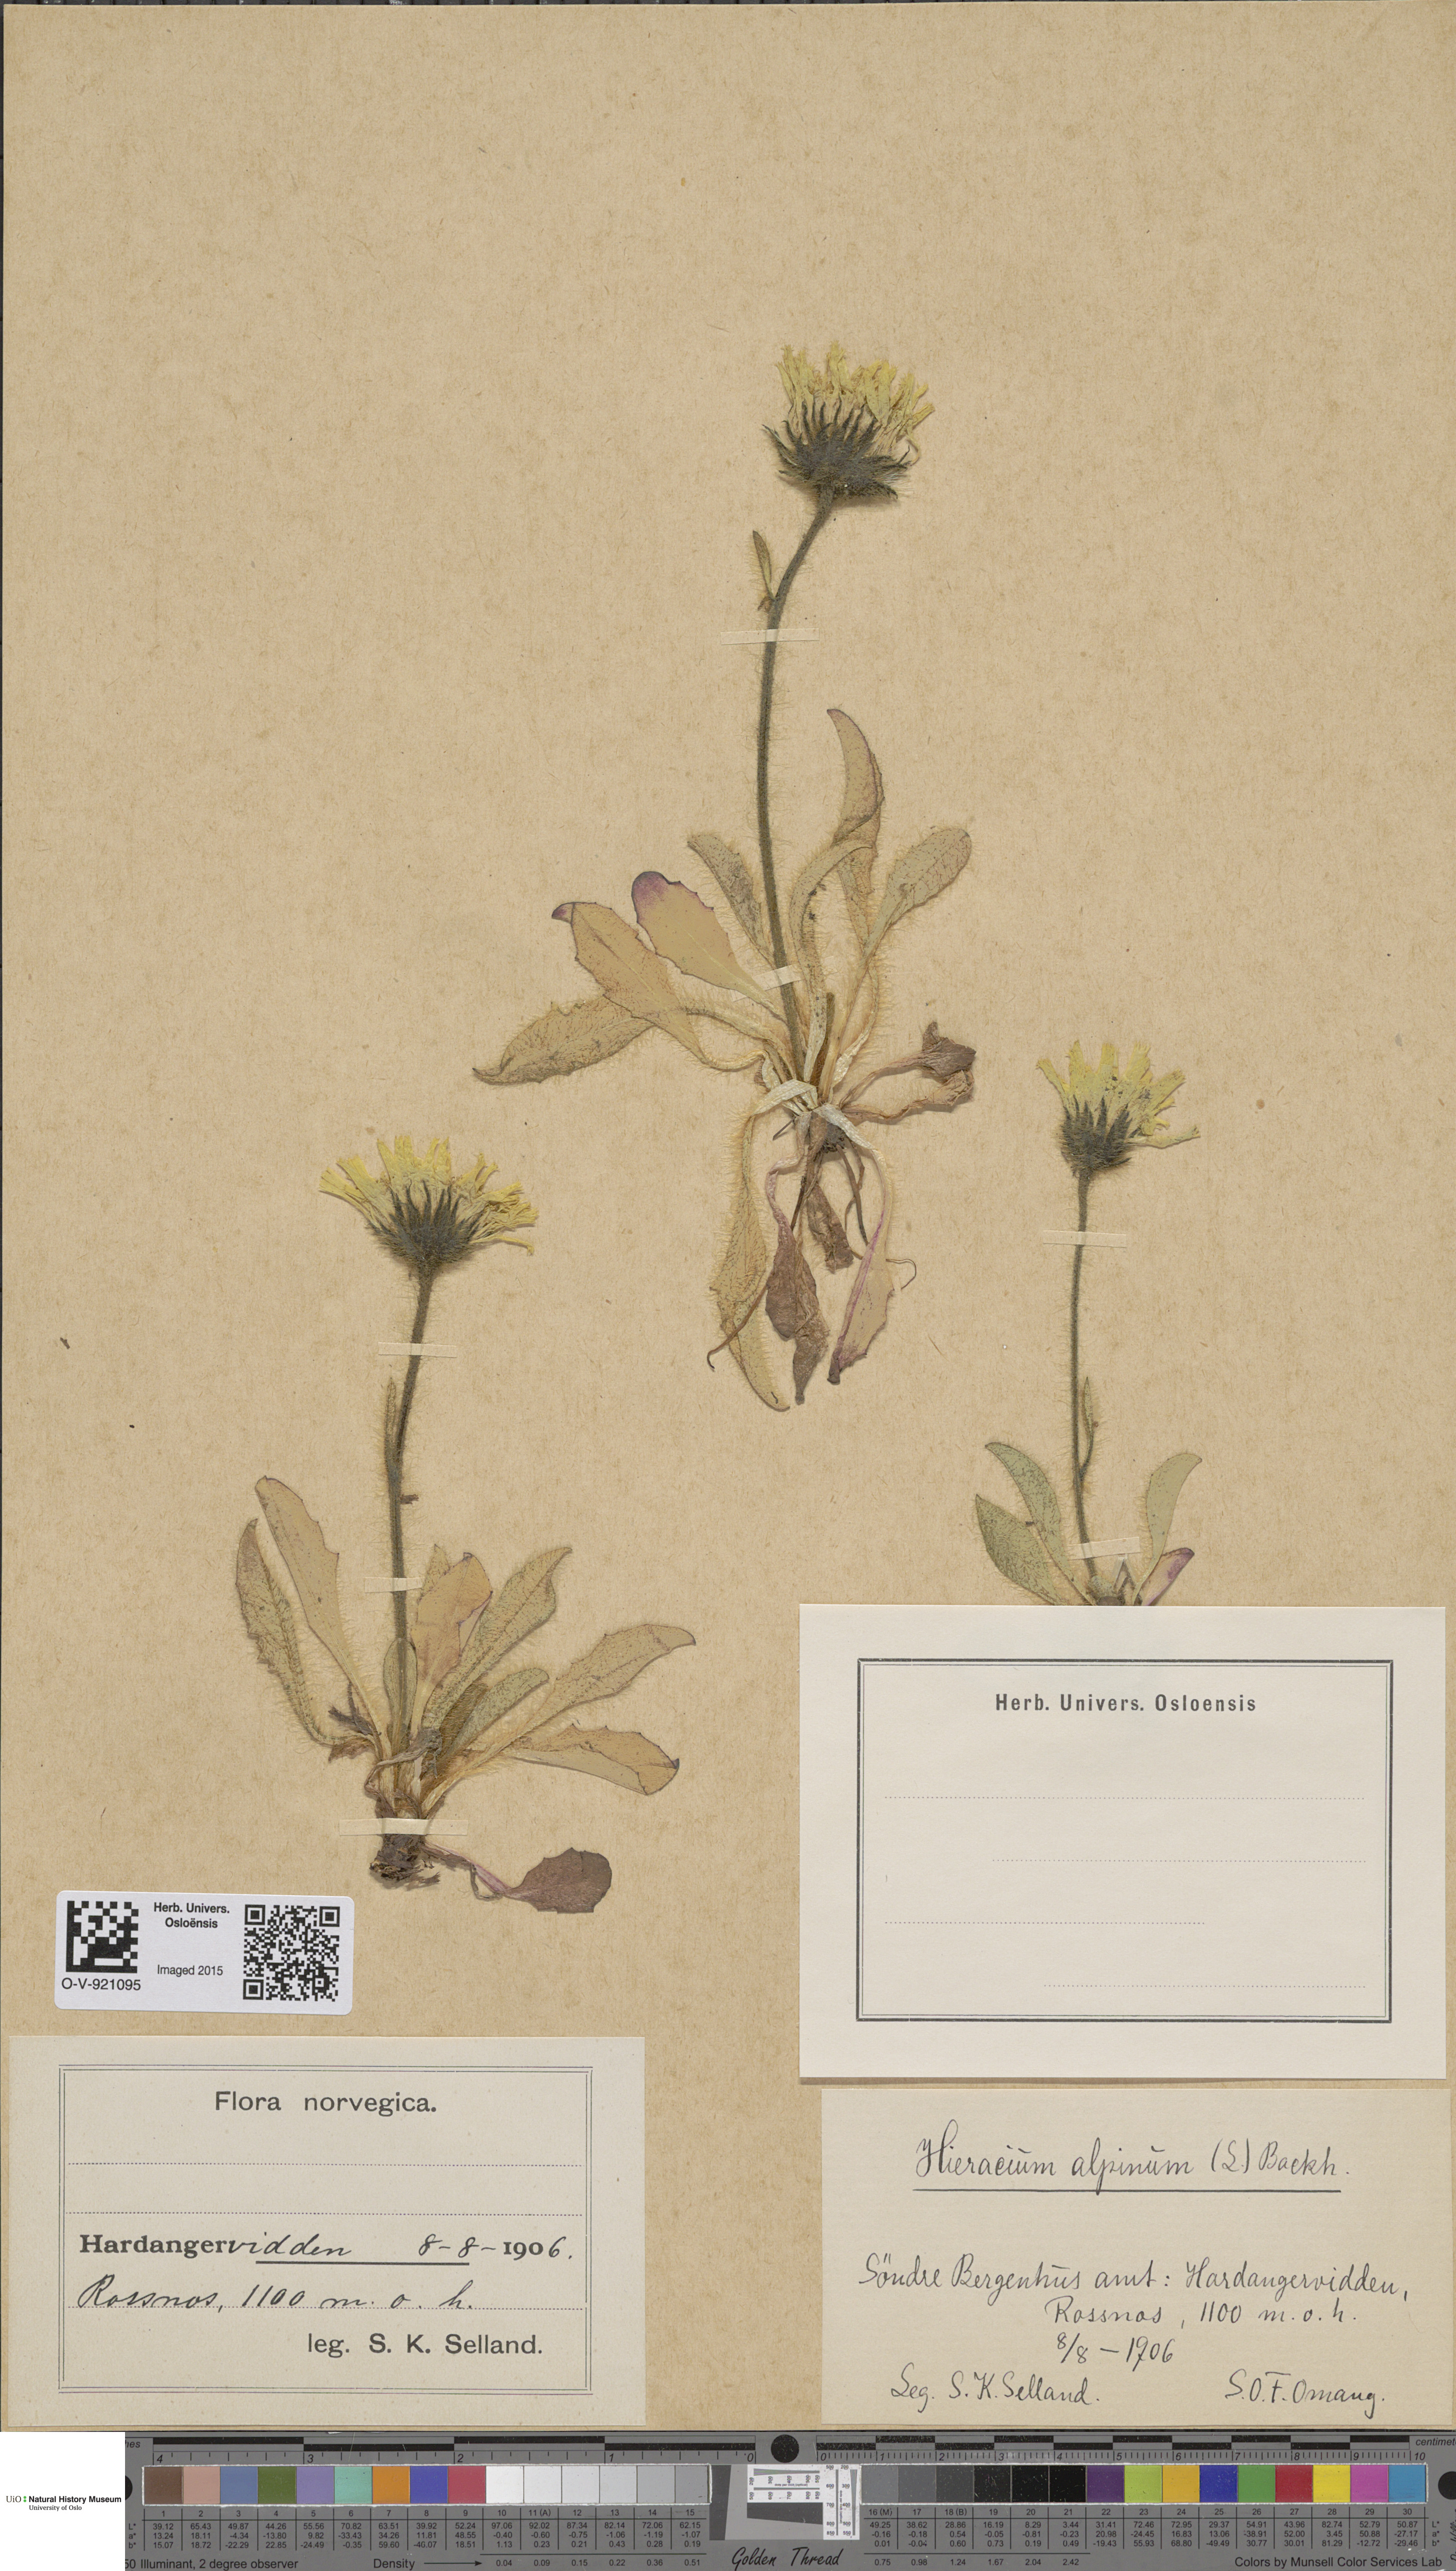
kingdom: Plantae
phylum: Tracheophyta
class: Magnoliopsida
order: Asterales
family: Asteraceae
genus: Hieracium
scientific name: Hieracium alpinum
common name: Alpine hawkweed
